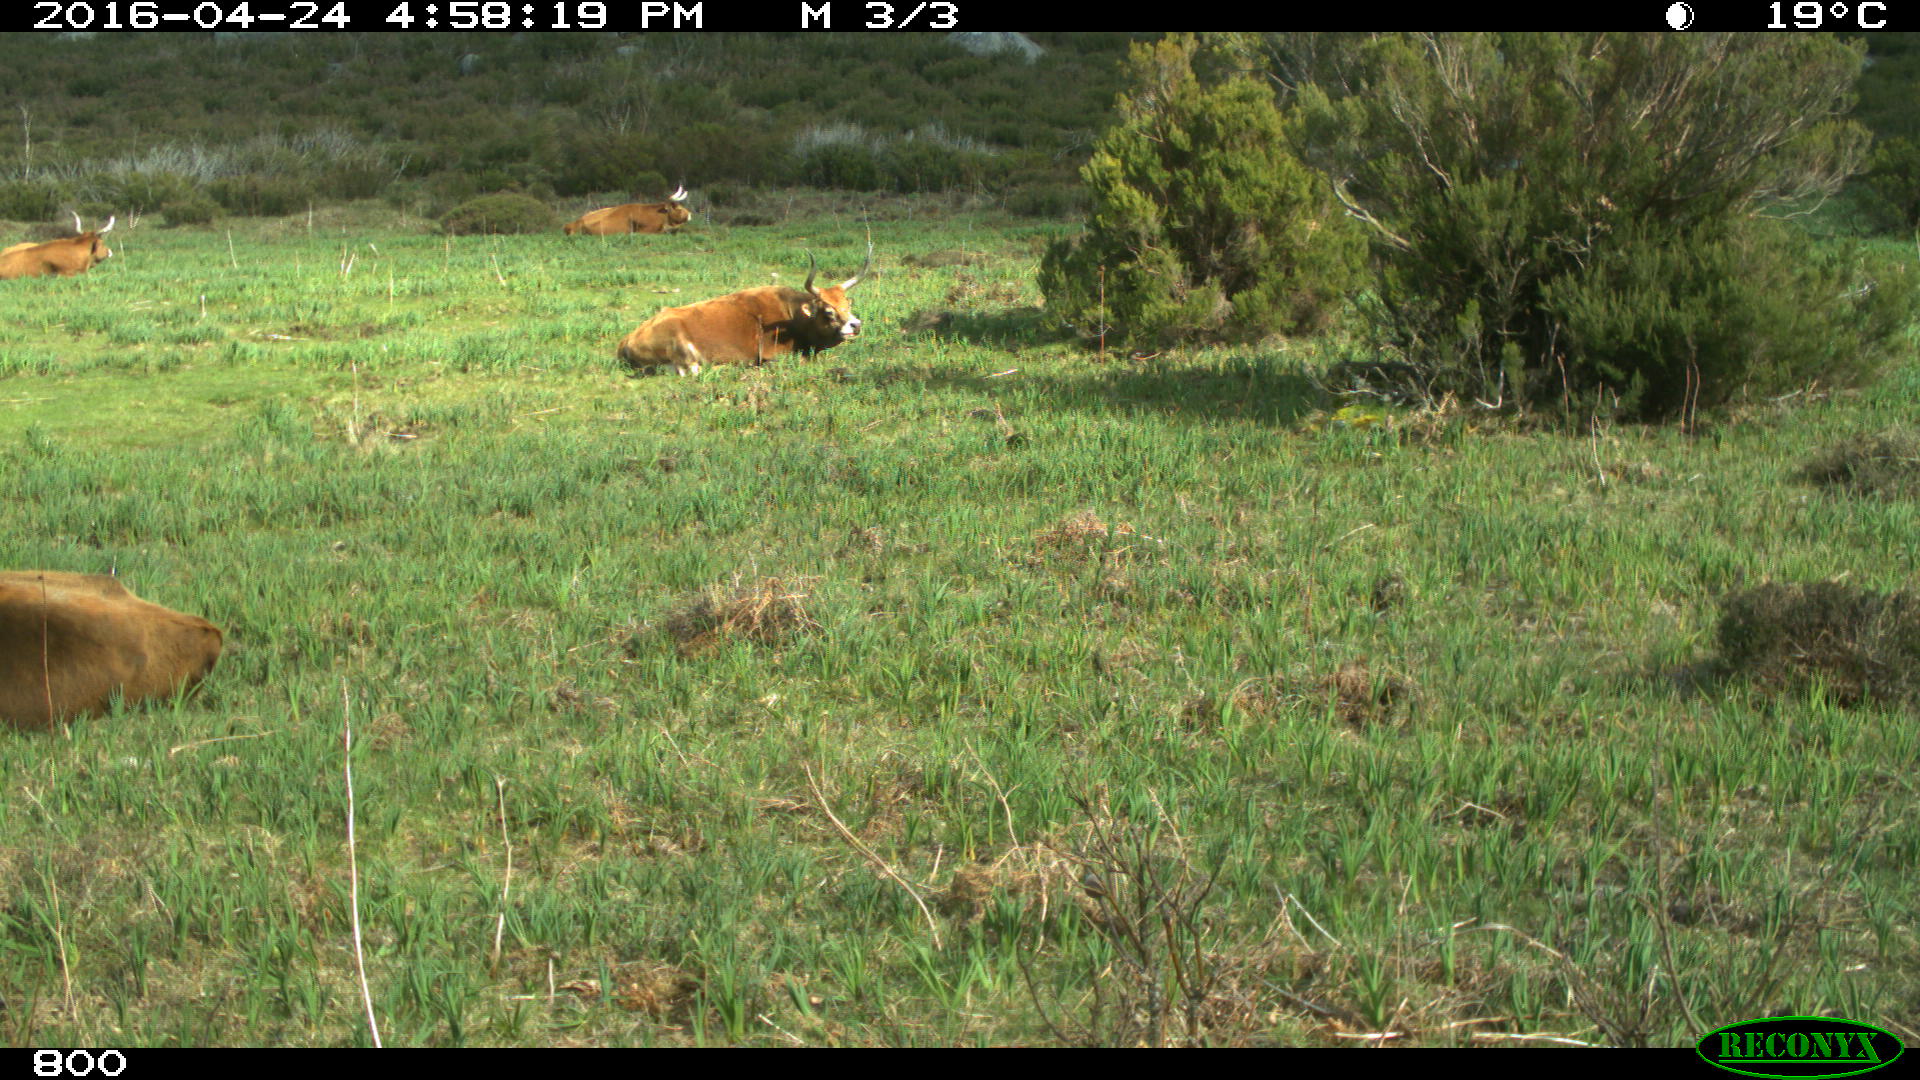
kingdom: Animalia
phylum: Chordata
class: Mammalia
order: Artiodactyla
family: Bovidae
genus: Bos
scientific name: Bos taurus
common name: Domesticated cattle
